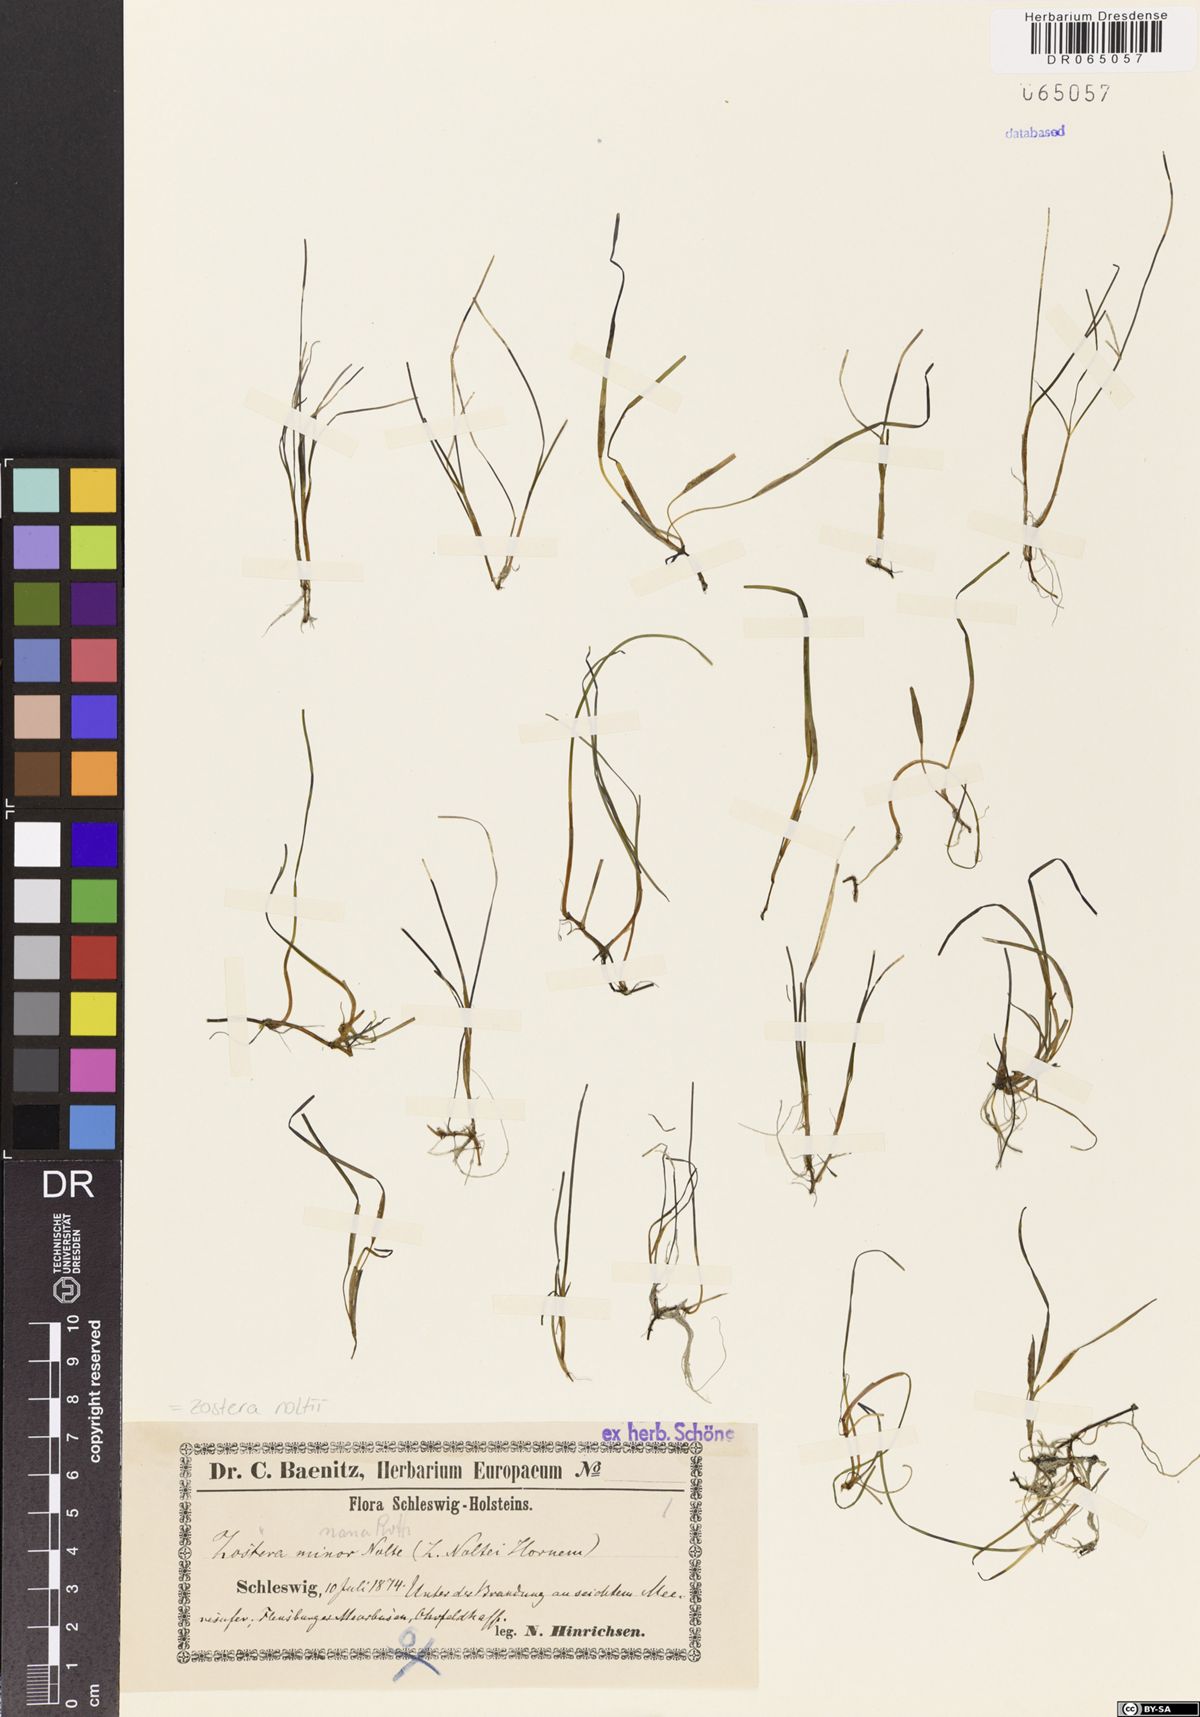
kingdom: Plantae
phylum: Tracheophyta
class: Liliopsida
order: Alismatales
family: Zosteraceae
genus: Zostera
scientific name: Zostera noltii
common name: Dwarf eelgrass
